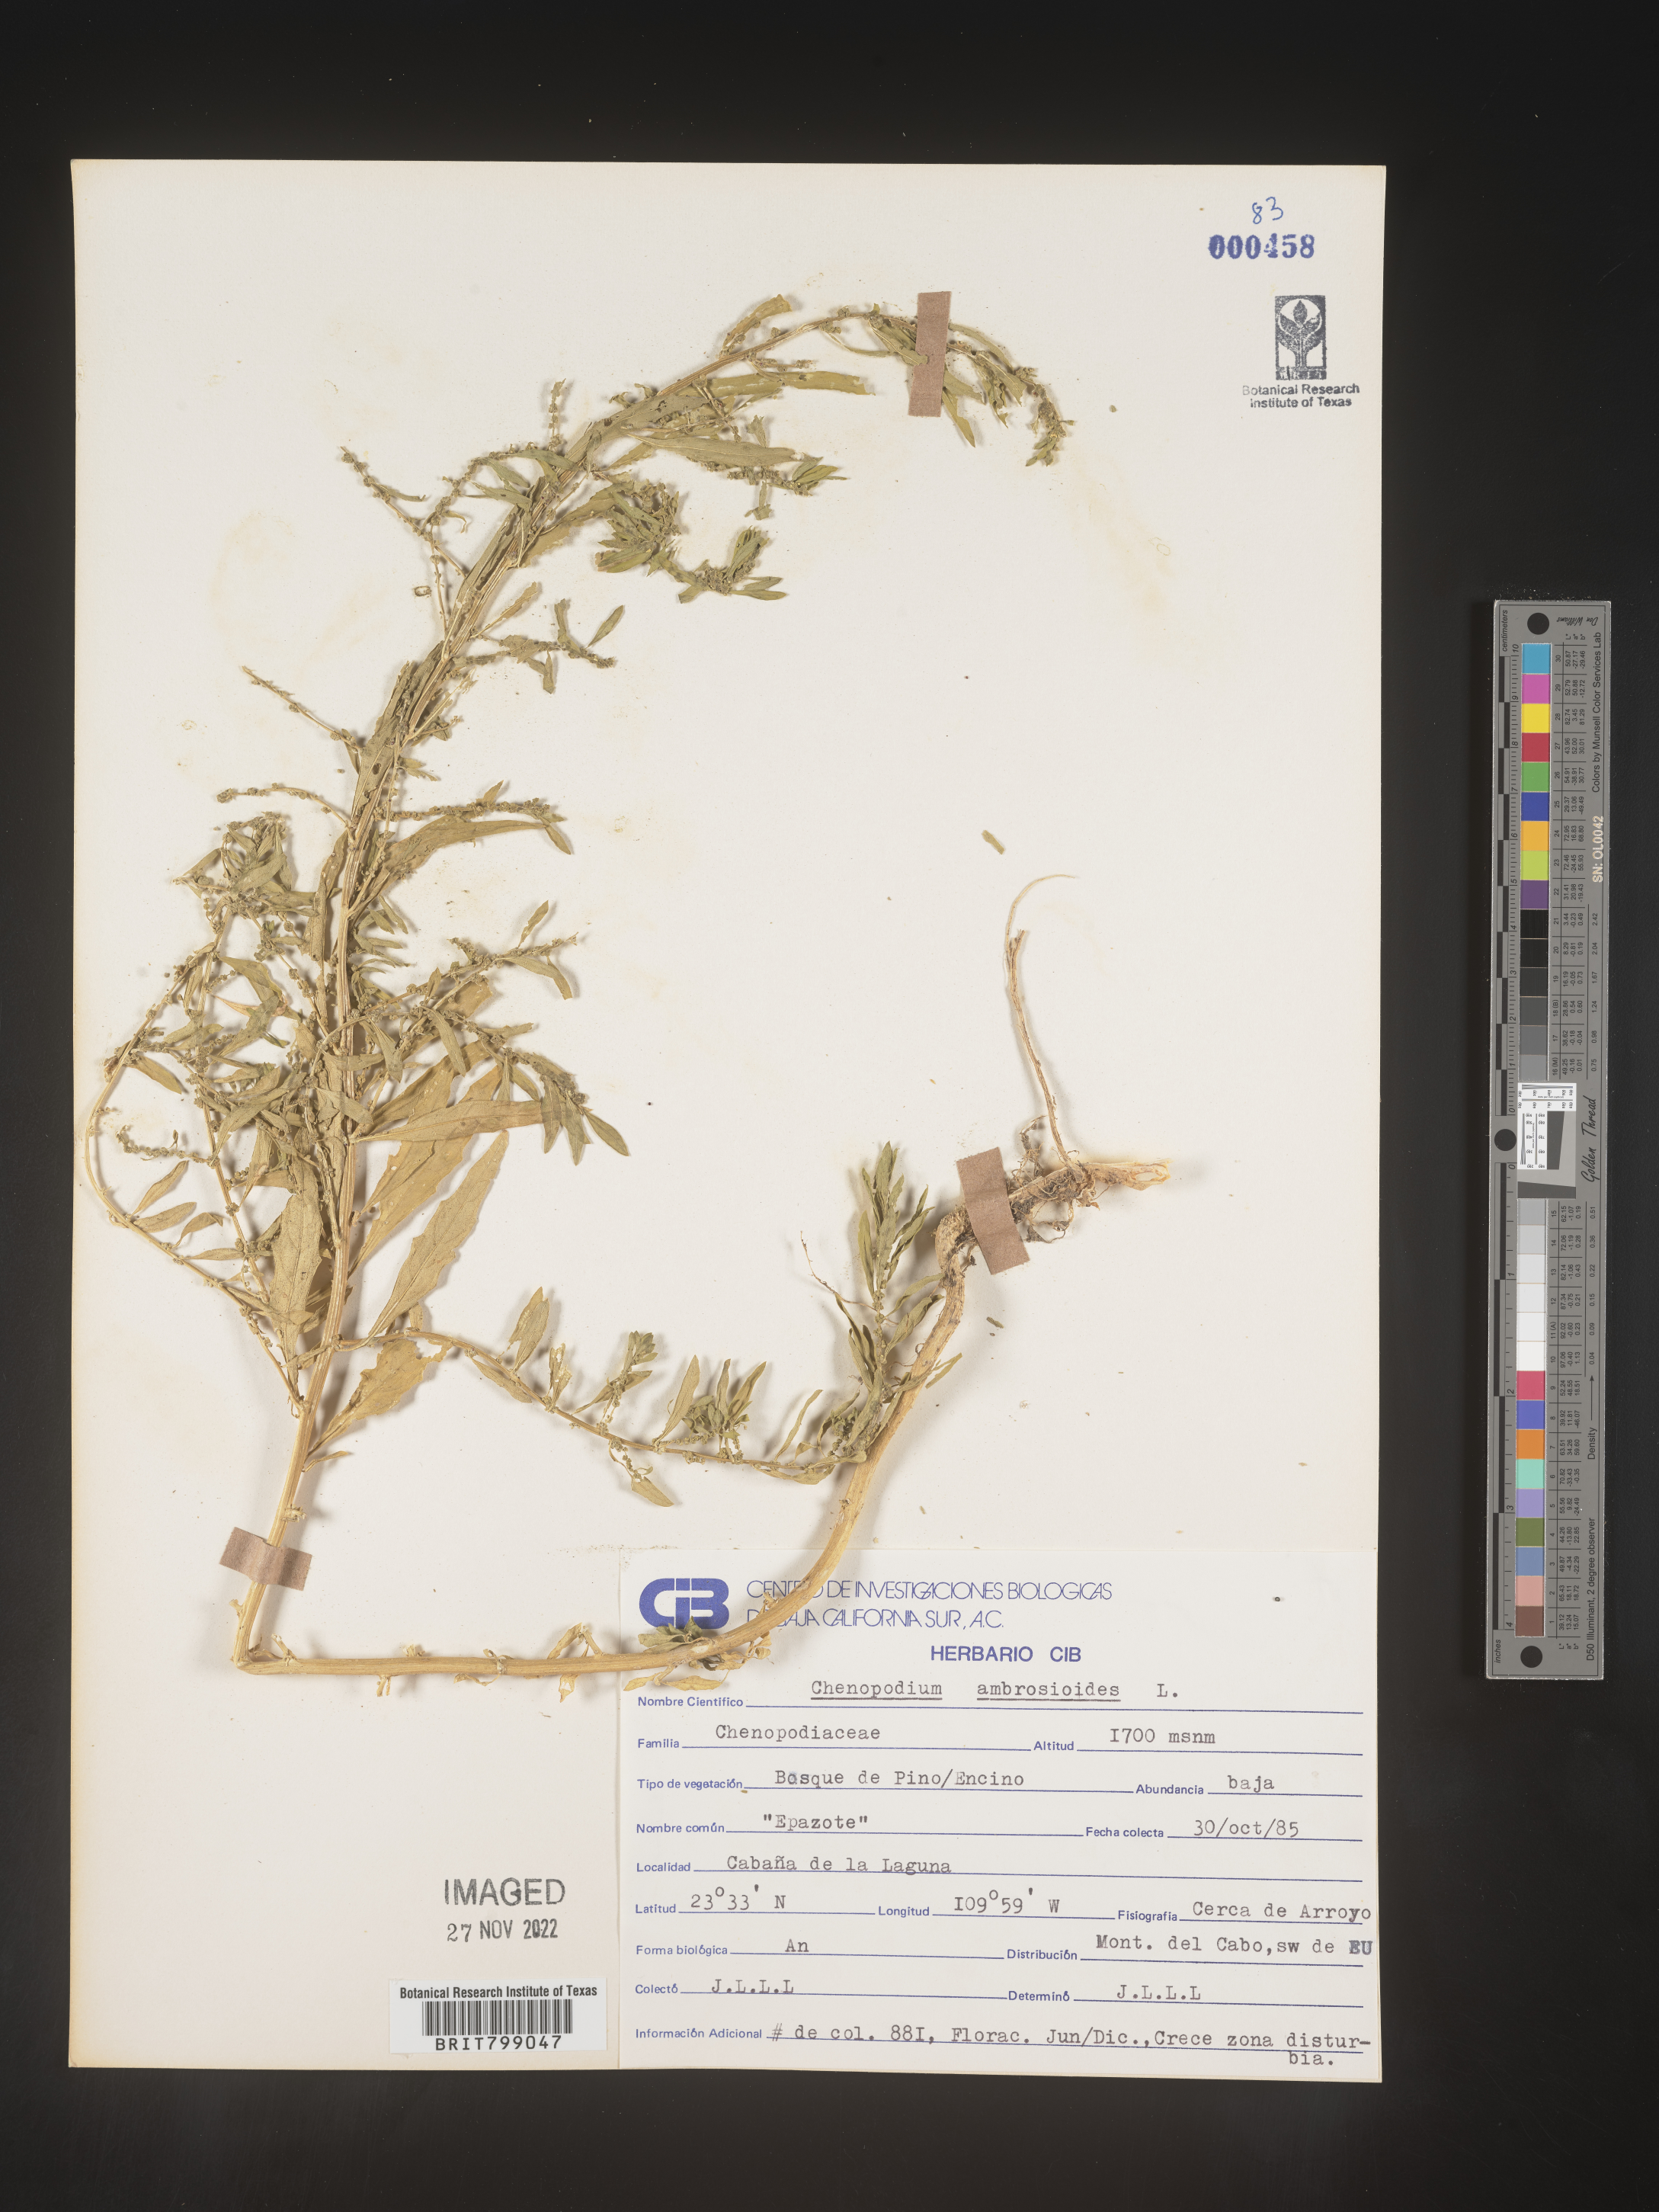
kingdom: Plantae
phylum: Tracheophyta
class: Magnoliopsida
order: Caryophyllales
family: Amaranthaceae
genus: Chenopodium
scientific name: Chenopodium
